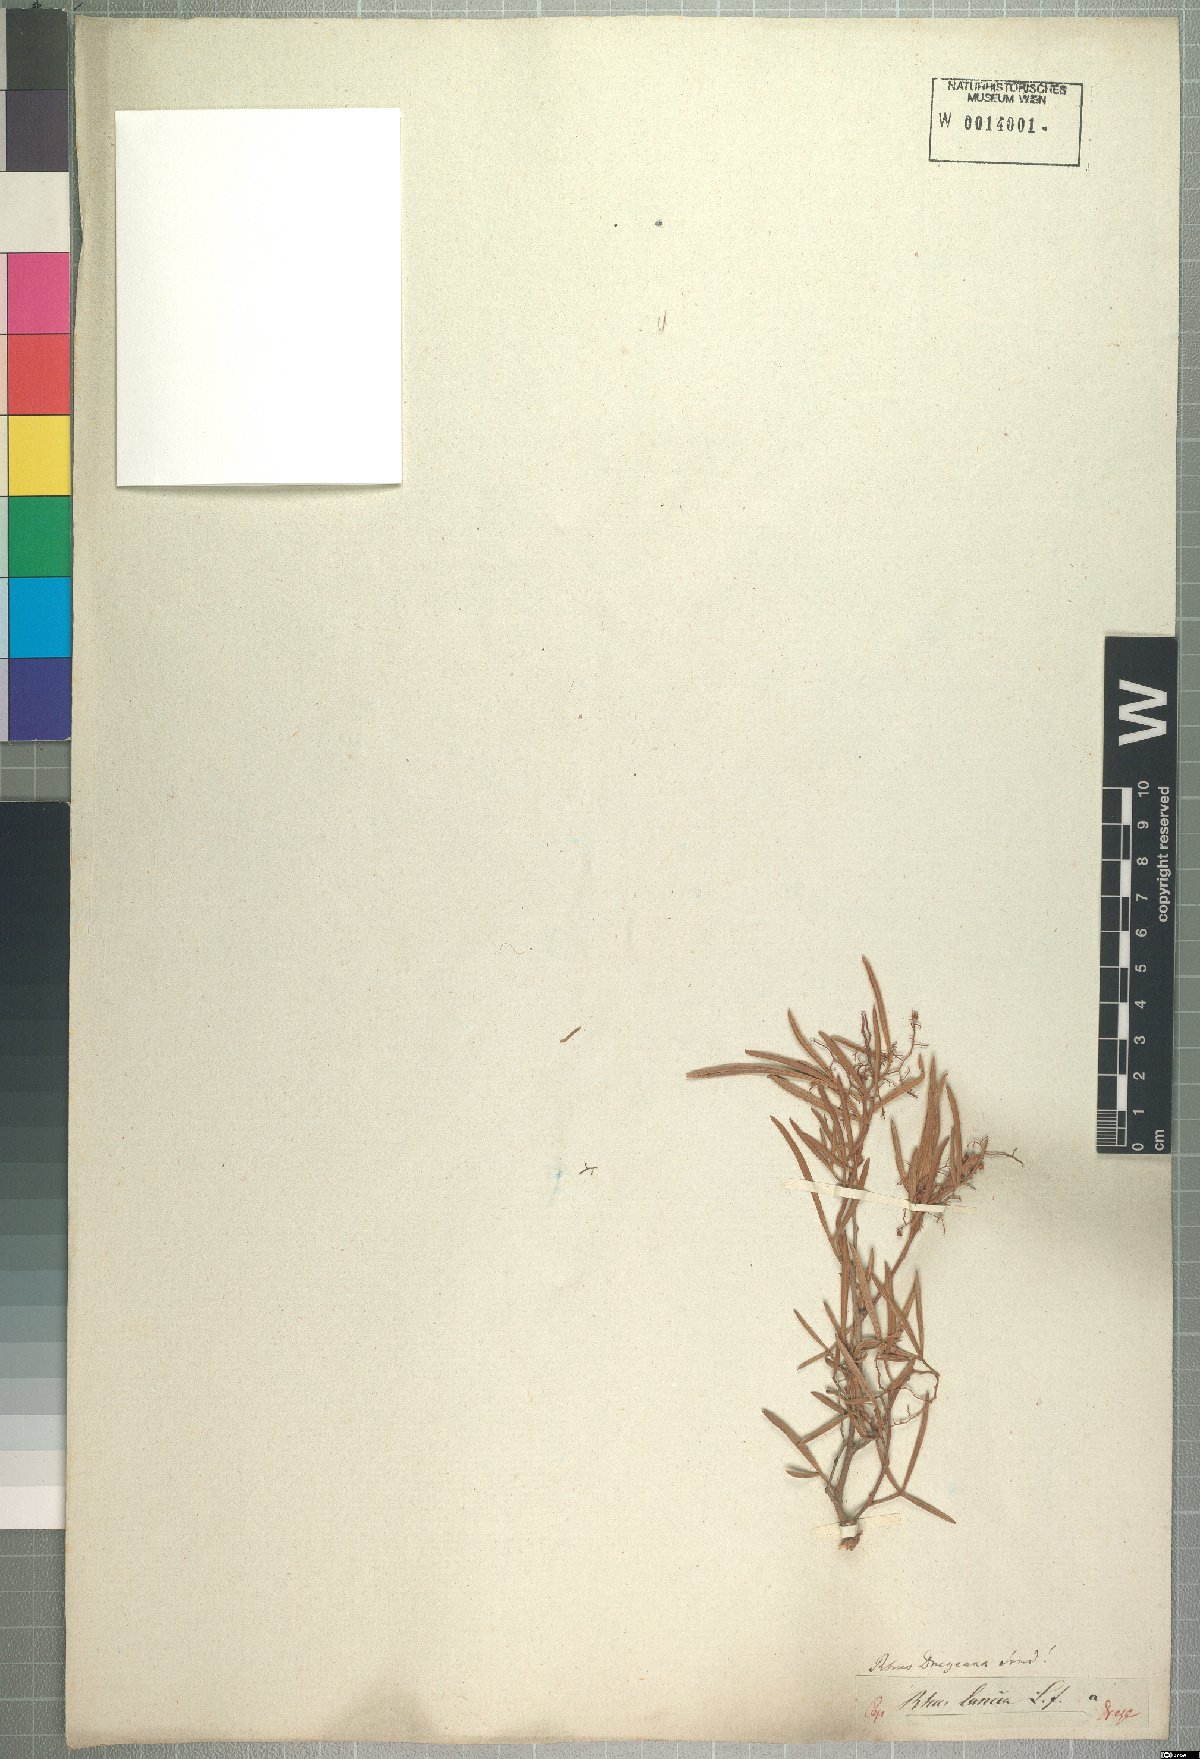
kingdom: Plantae
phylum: Tracheophyta
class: Magnoliopsida
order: Sapindales
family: Anacardiaceae
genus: Searsia
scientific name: Searsia dregeana
